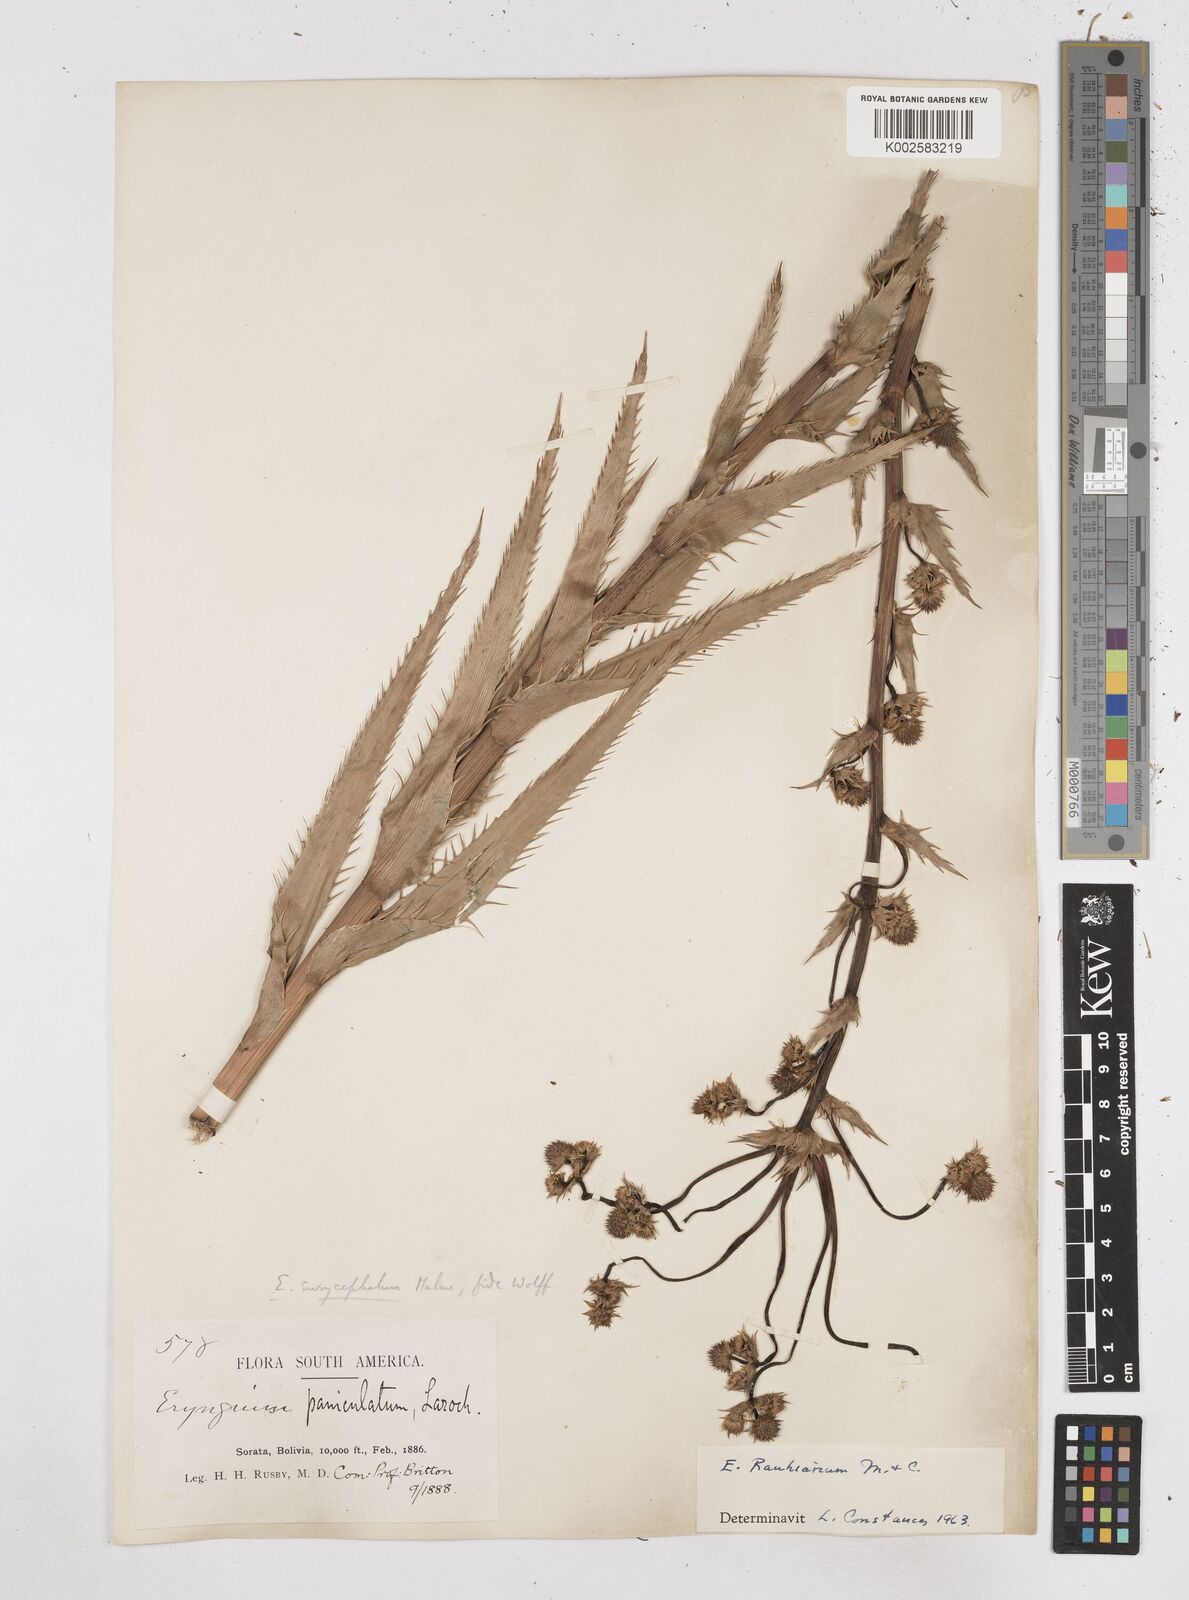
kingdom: Plantae
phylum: Tracheophyta
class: Magnoliopsida
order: Apiales
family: Apiaceae
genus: Eryngium
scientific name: Eryngium eurycephalum
